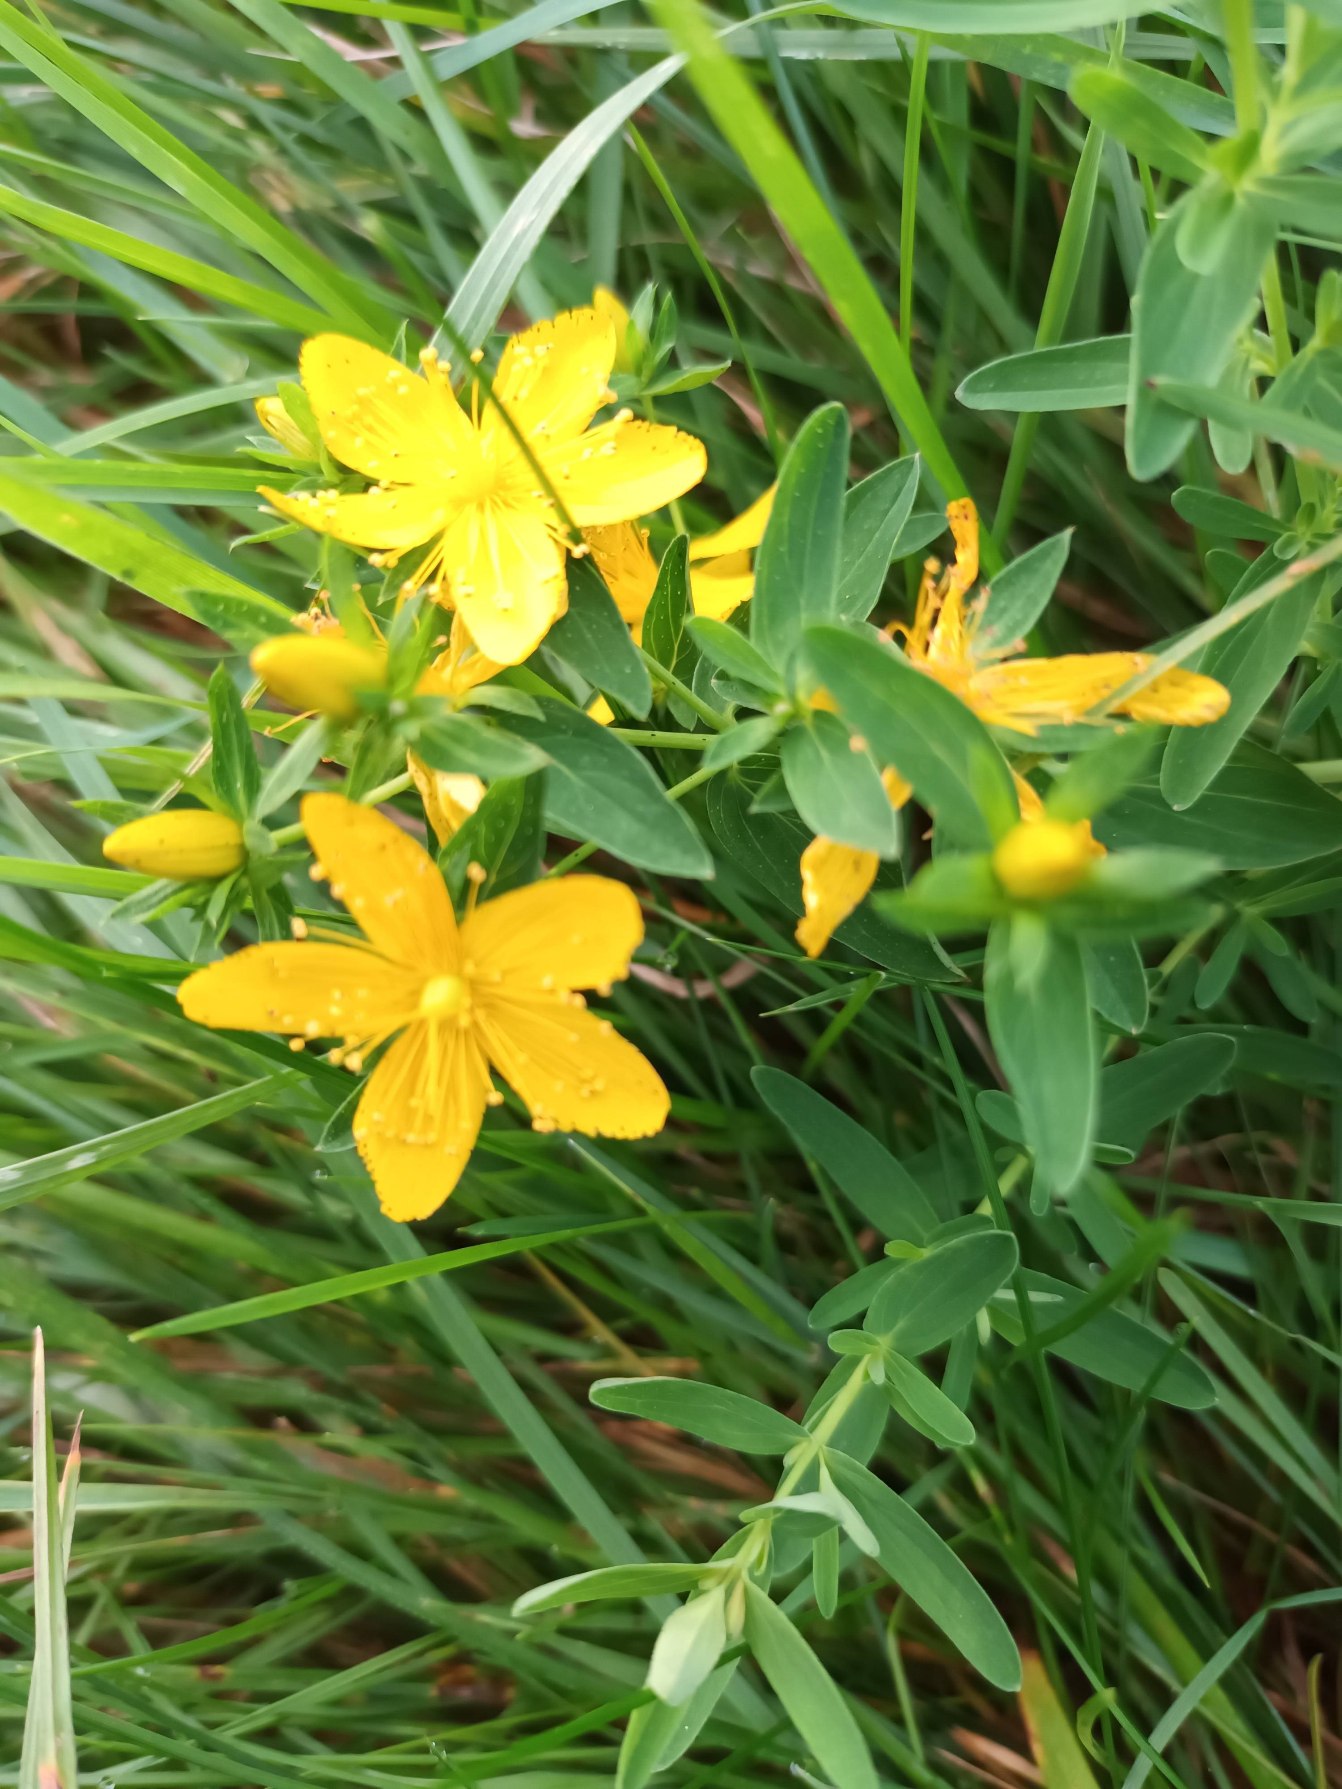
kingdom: Plantae
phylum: Tracheophyta
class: Magnoliopsida
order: Malpighiales
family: Hypericaceae
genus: Hypericum
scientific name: Hypericum perforatum
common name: Prikbladet perikon
